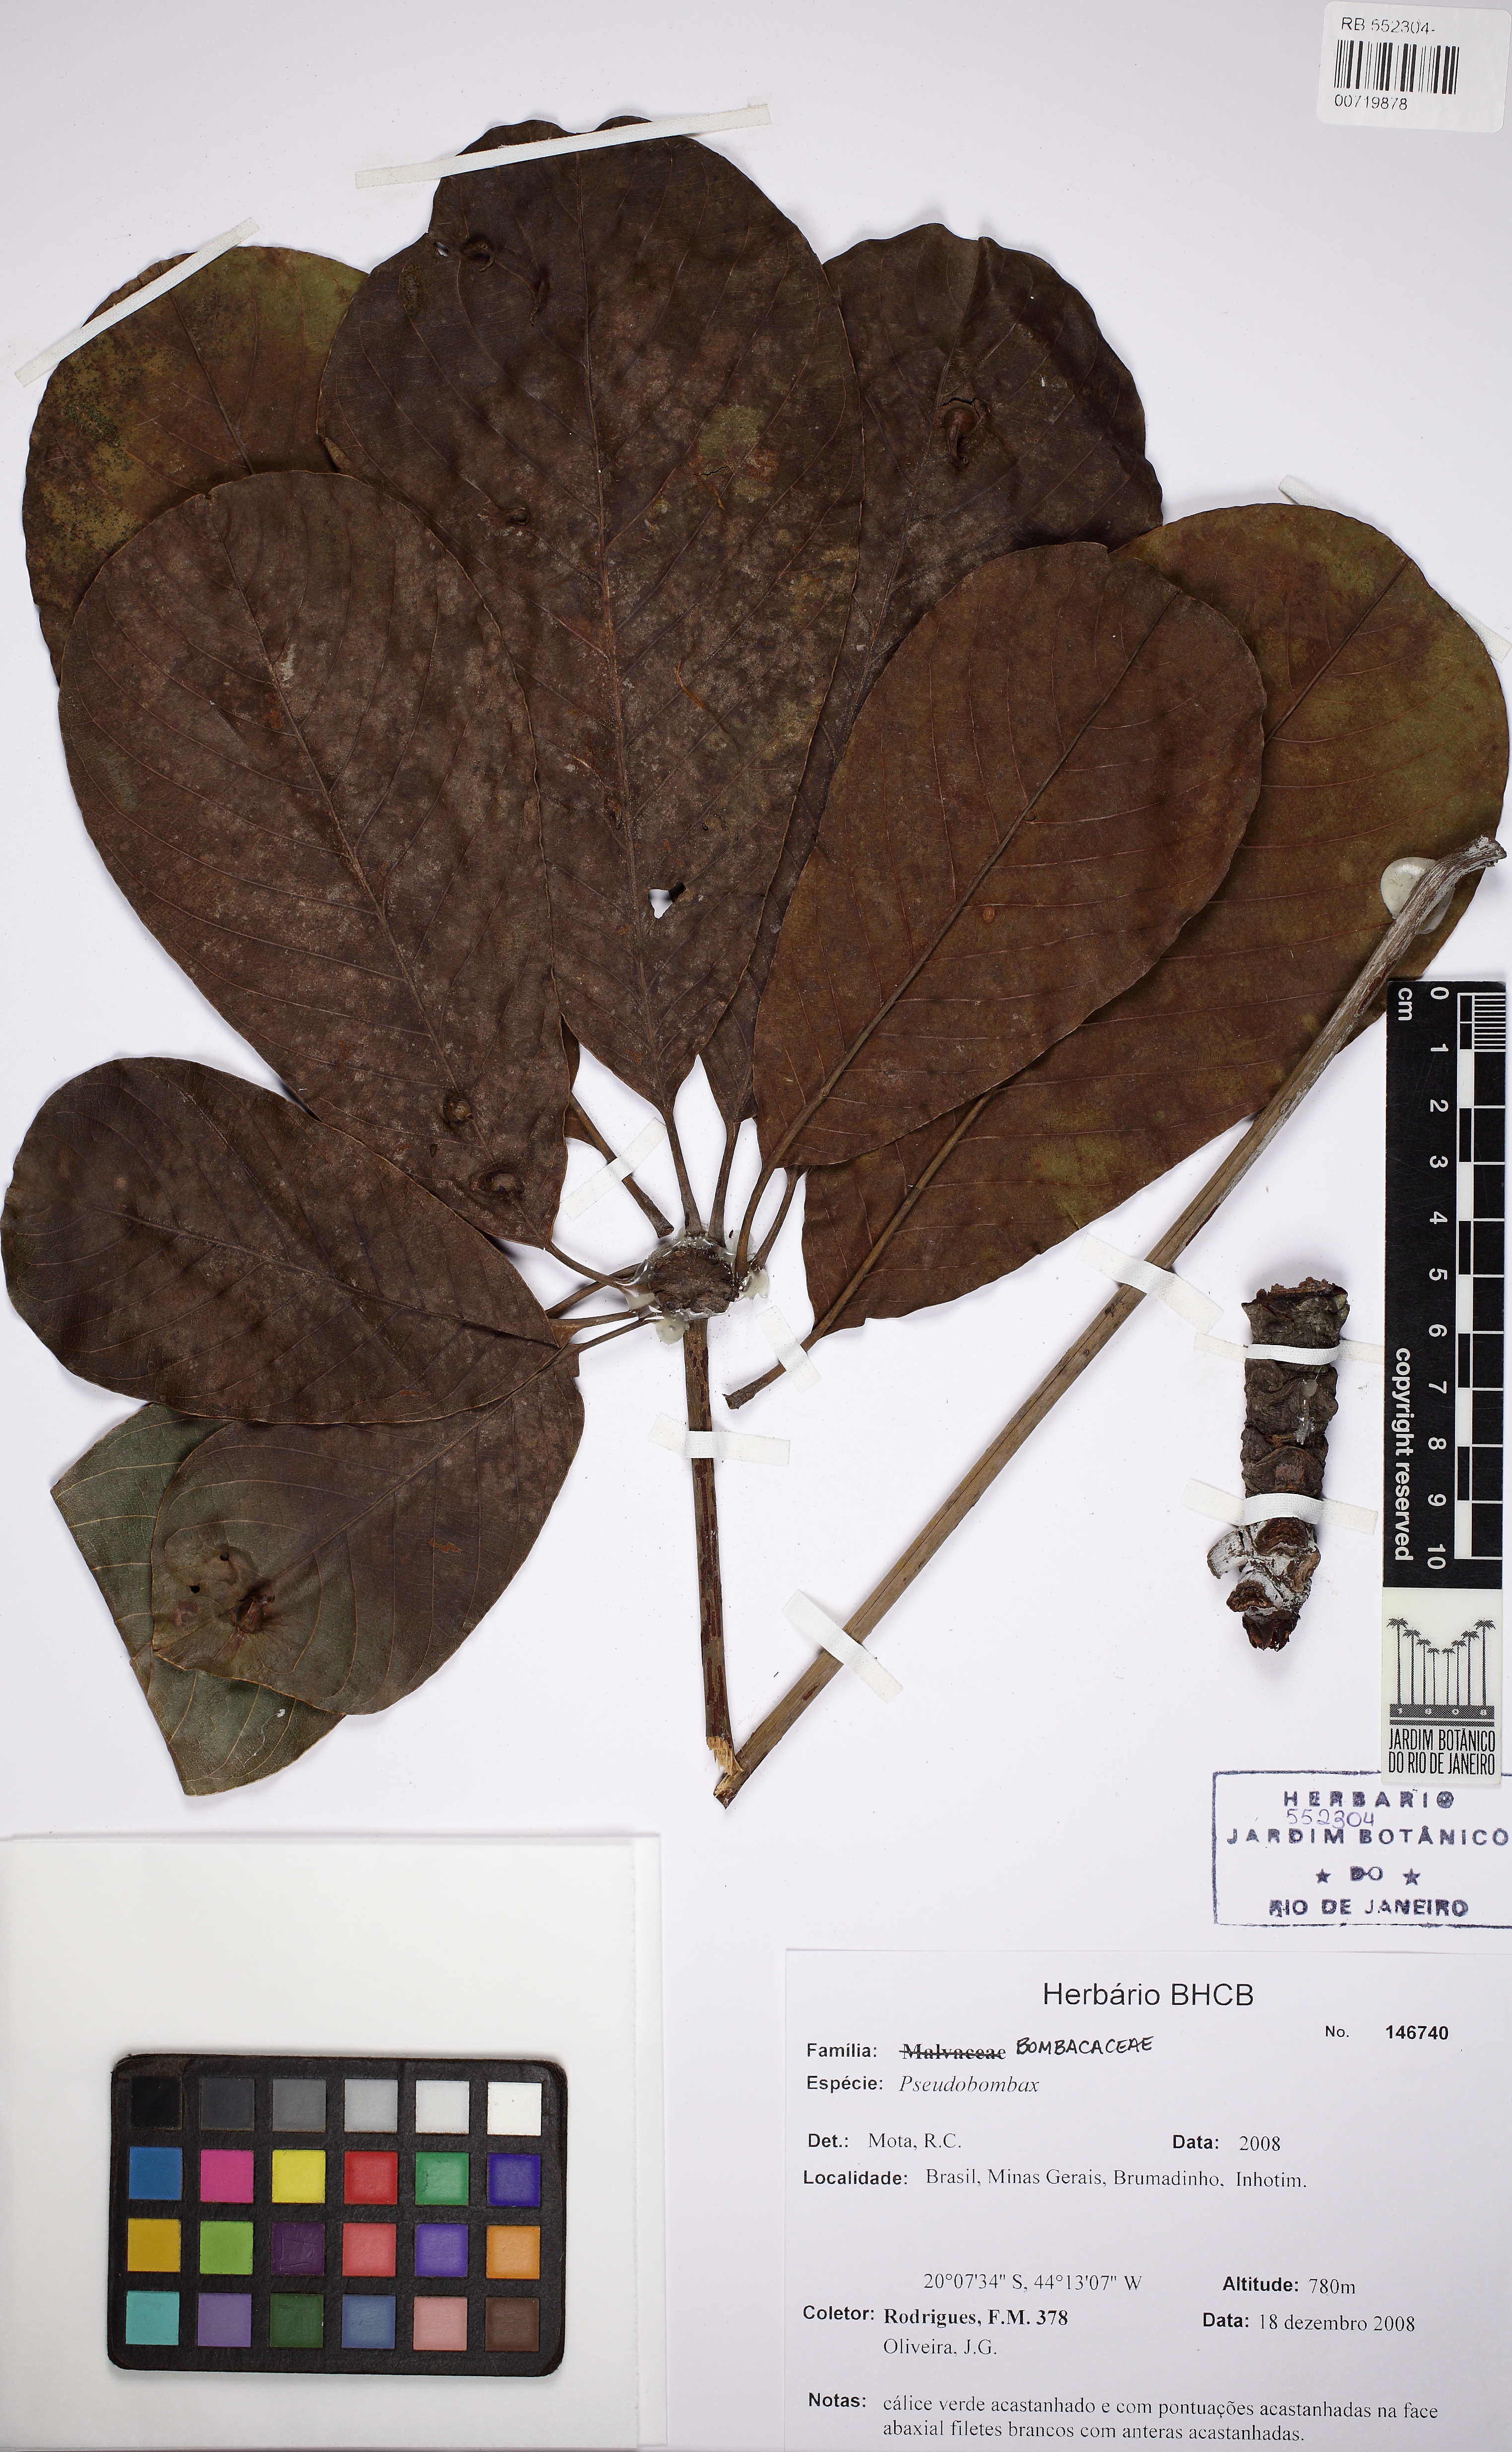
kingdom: Plantae
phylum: Tracheophyta
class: Magnoliopsida
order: Malvales
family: Malvaceae
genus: Pseudobombax
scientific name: Pseudobombax
